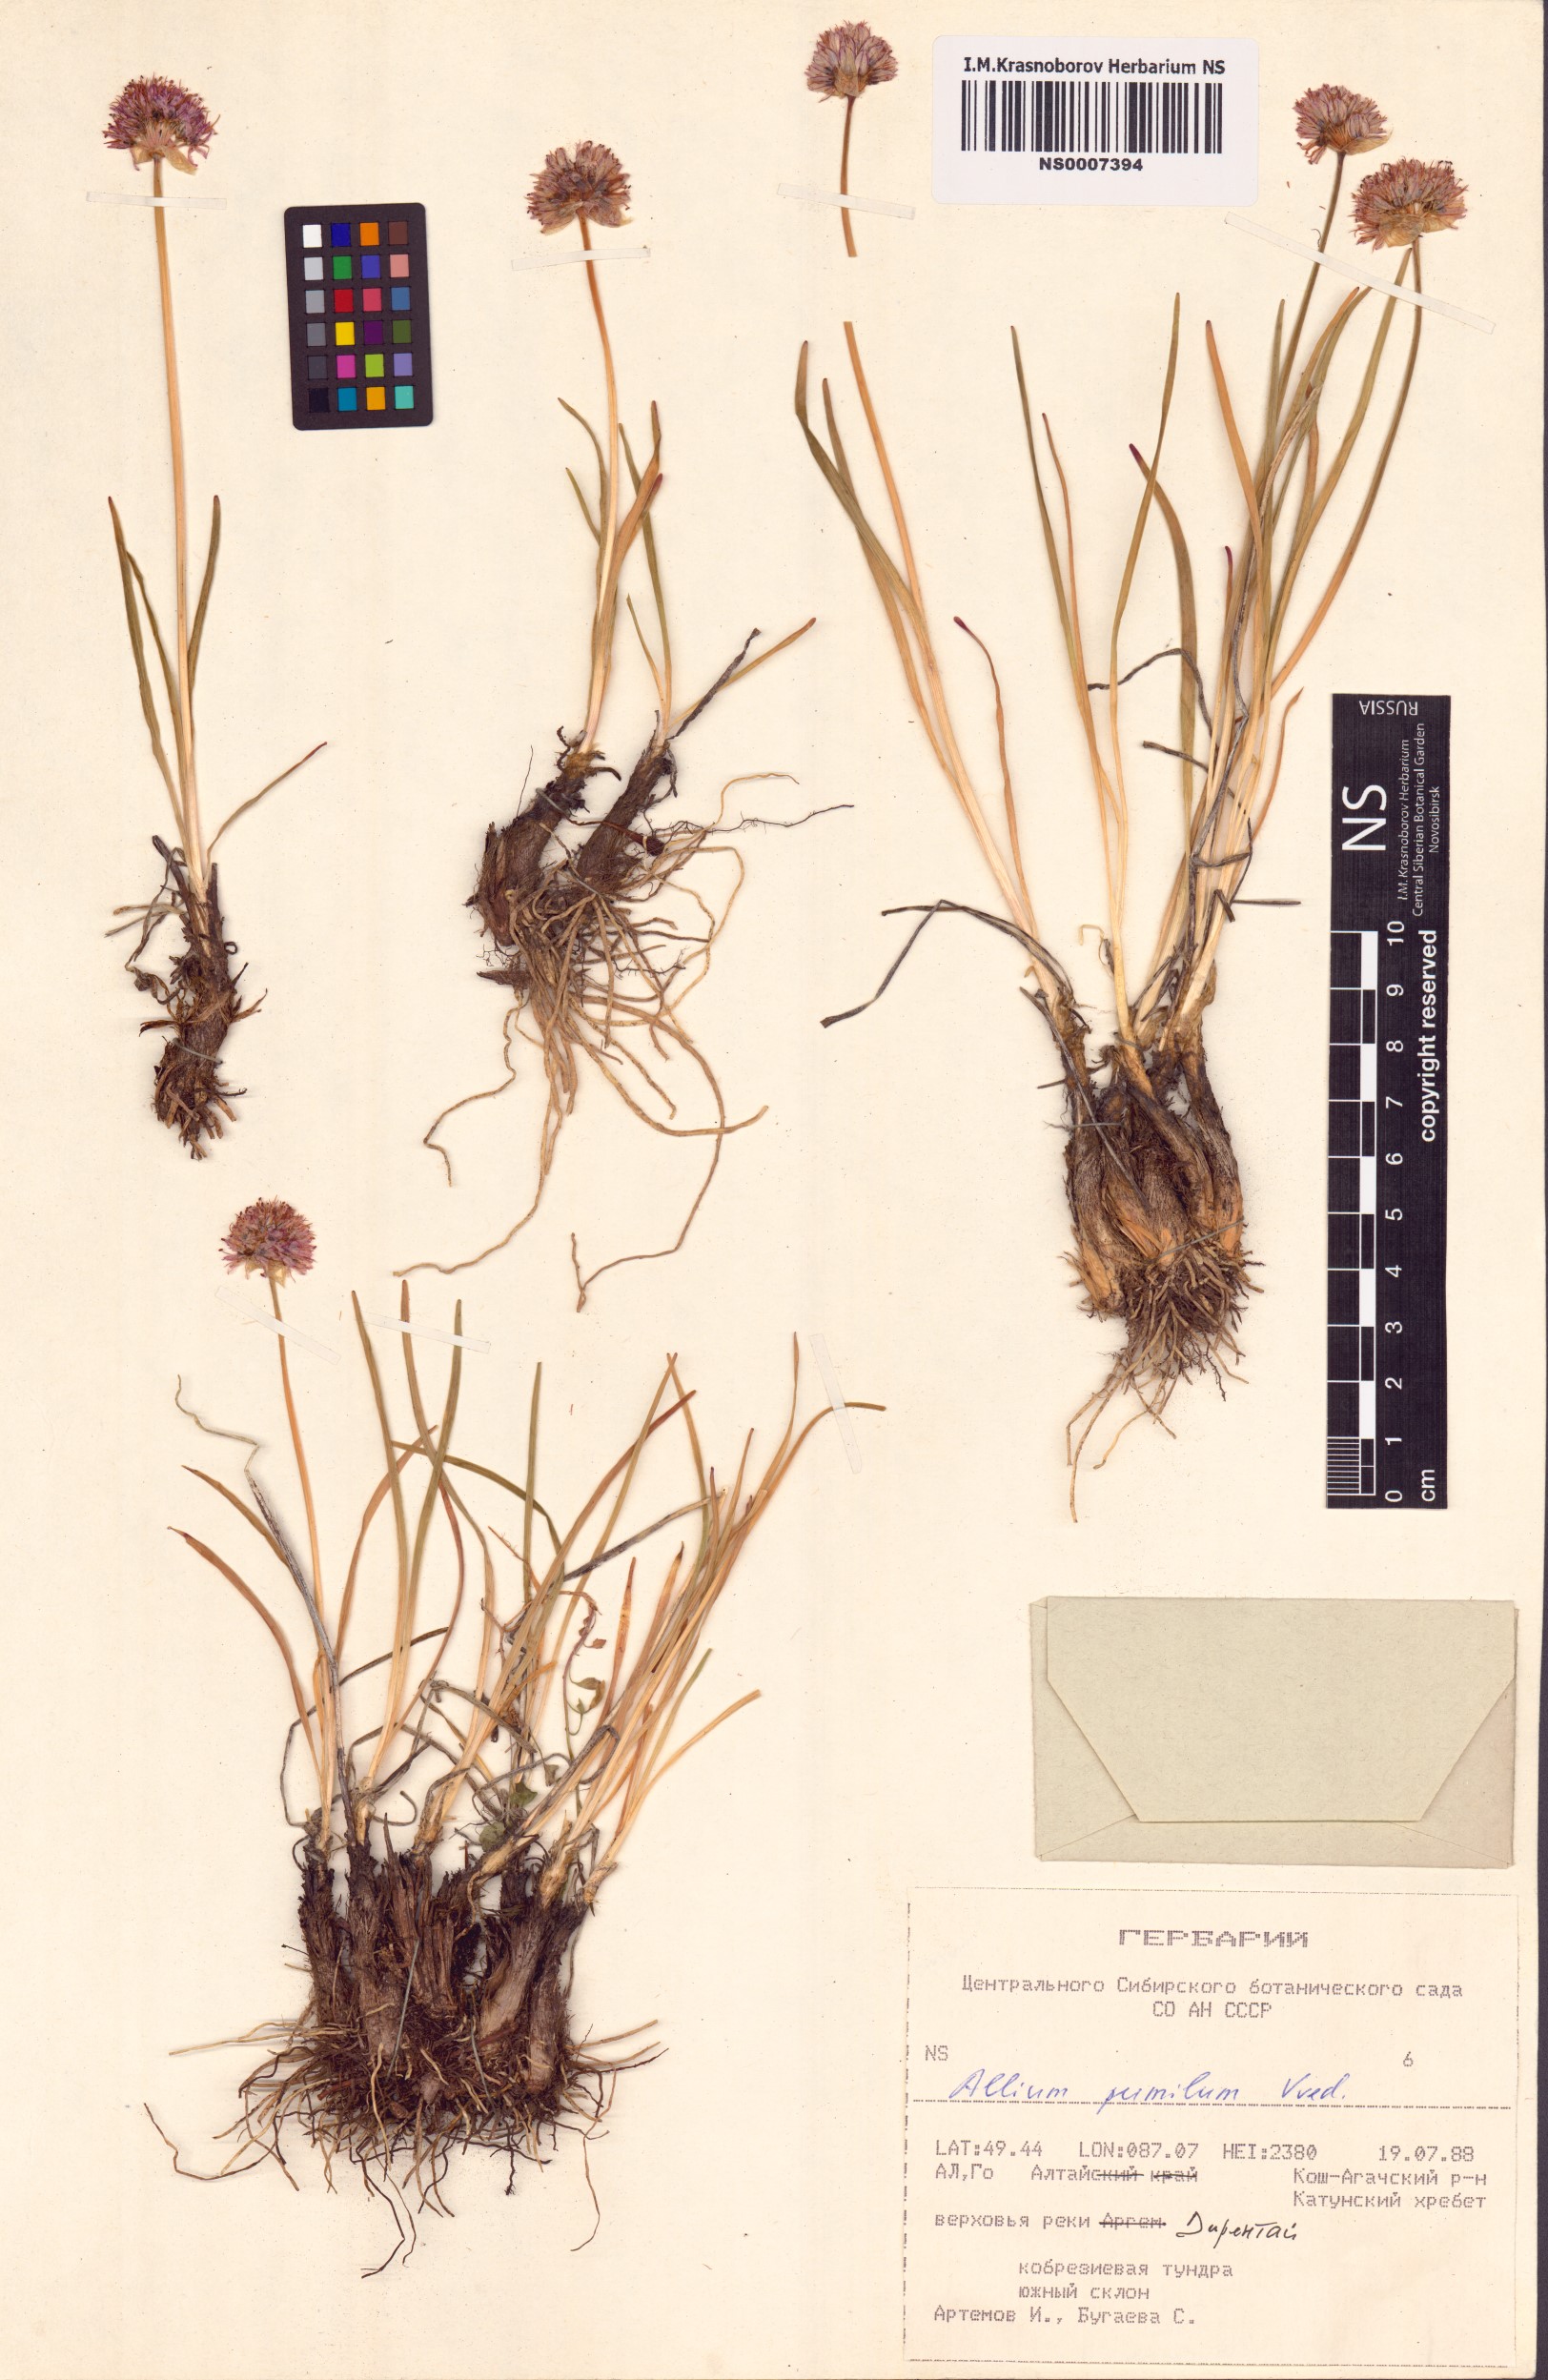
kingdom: Plantae
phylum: Tracheophyta
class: Liliopsida
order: Asparagales
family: Amaryllidaceae
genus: Allium
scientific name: Allium pumilum
